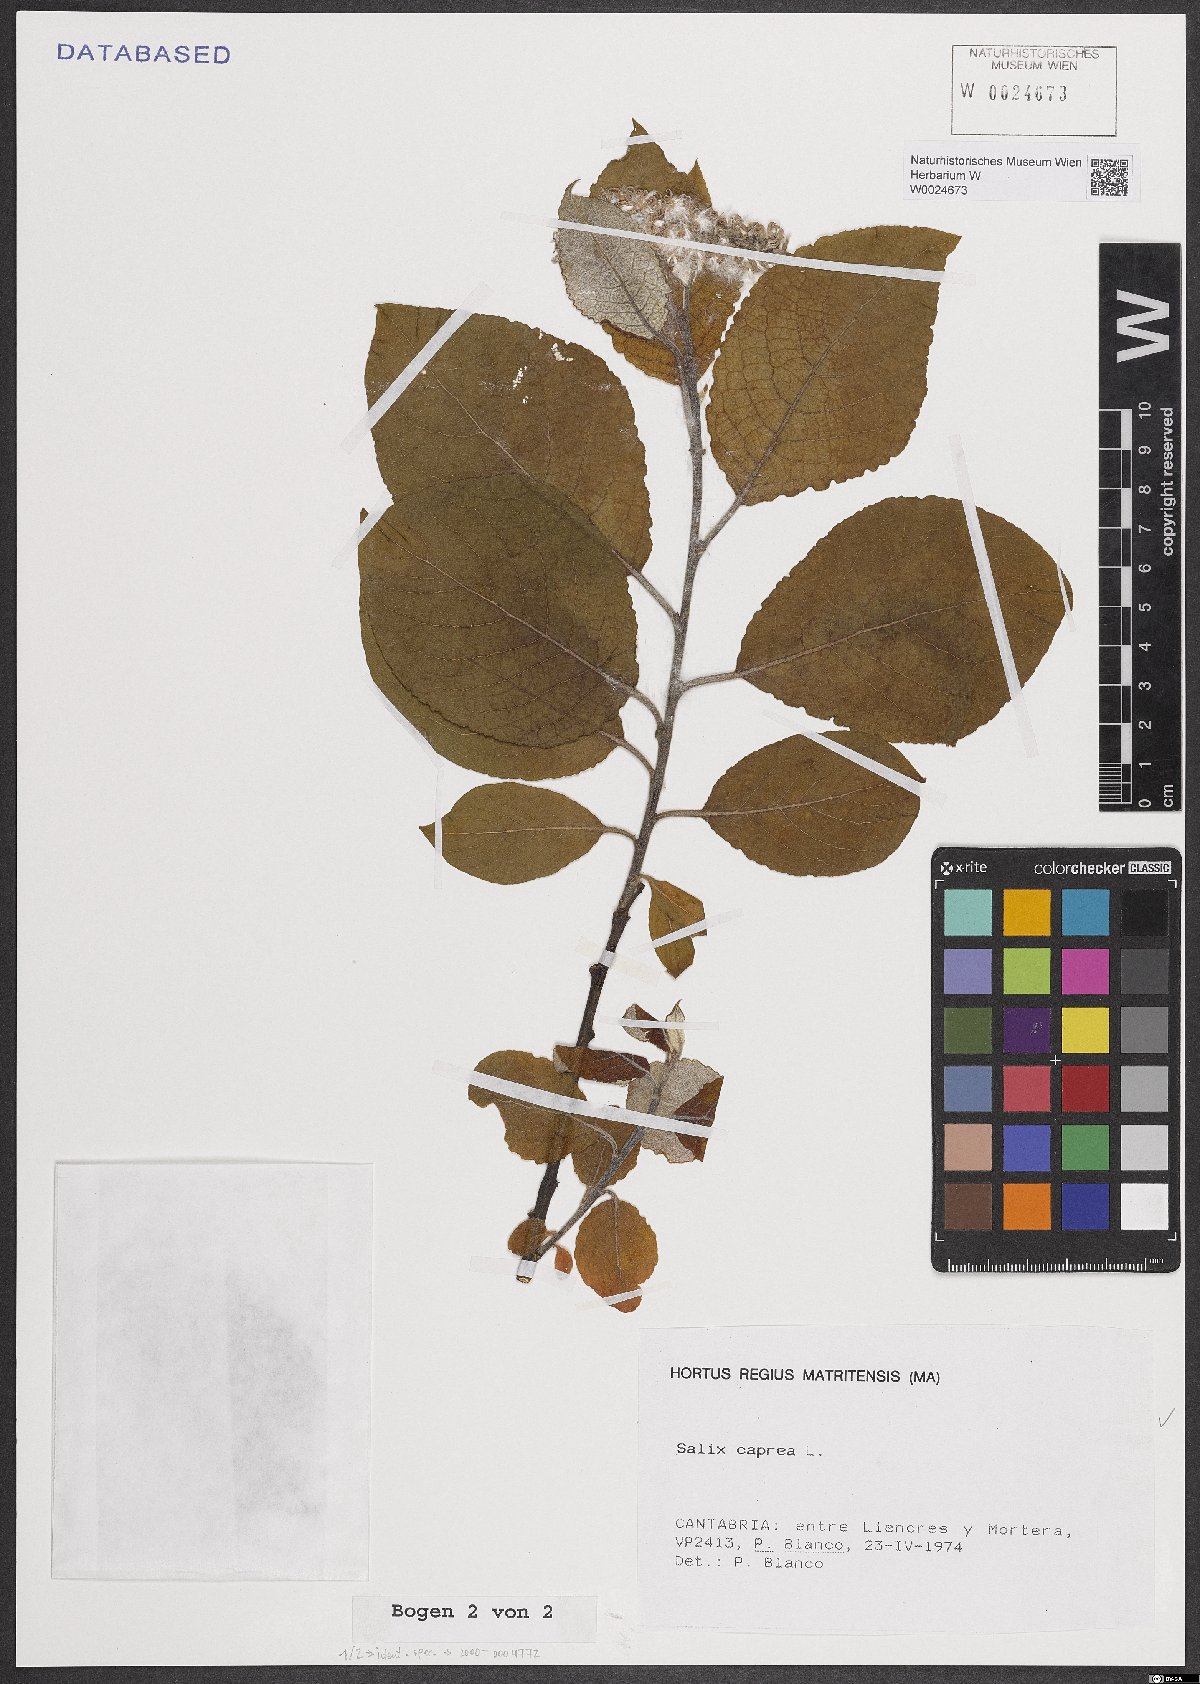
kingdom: Plantae
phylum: Tracheophyta
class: Magnoliopsida
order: Malpighiales
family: Salicaceae
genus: Salix
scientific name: Salix caprea
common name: Goat willow
